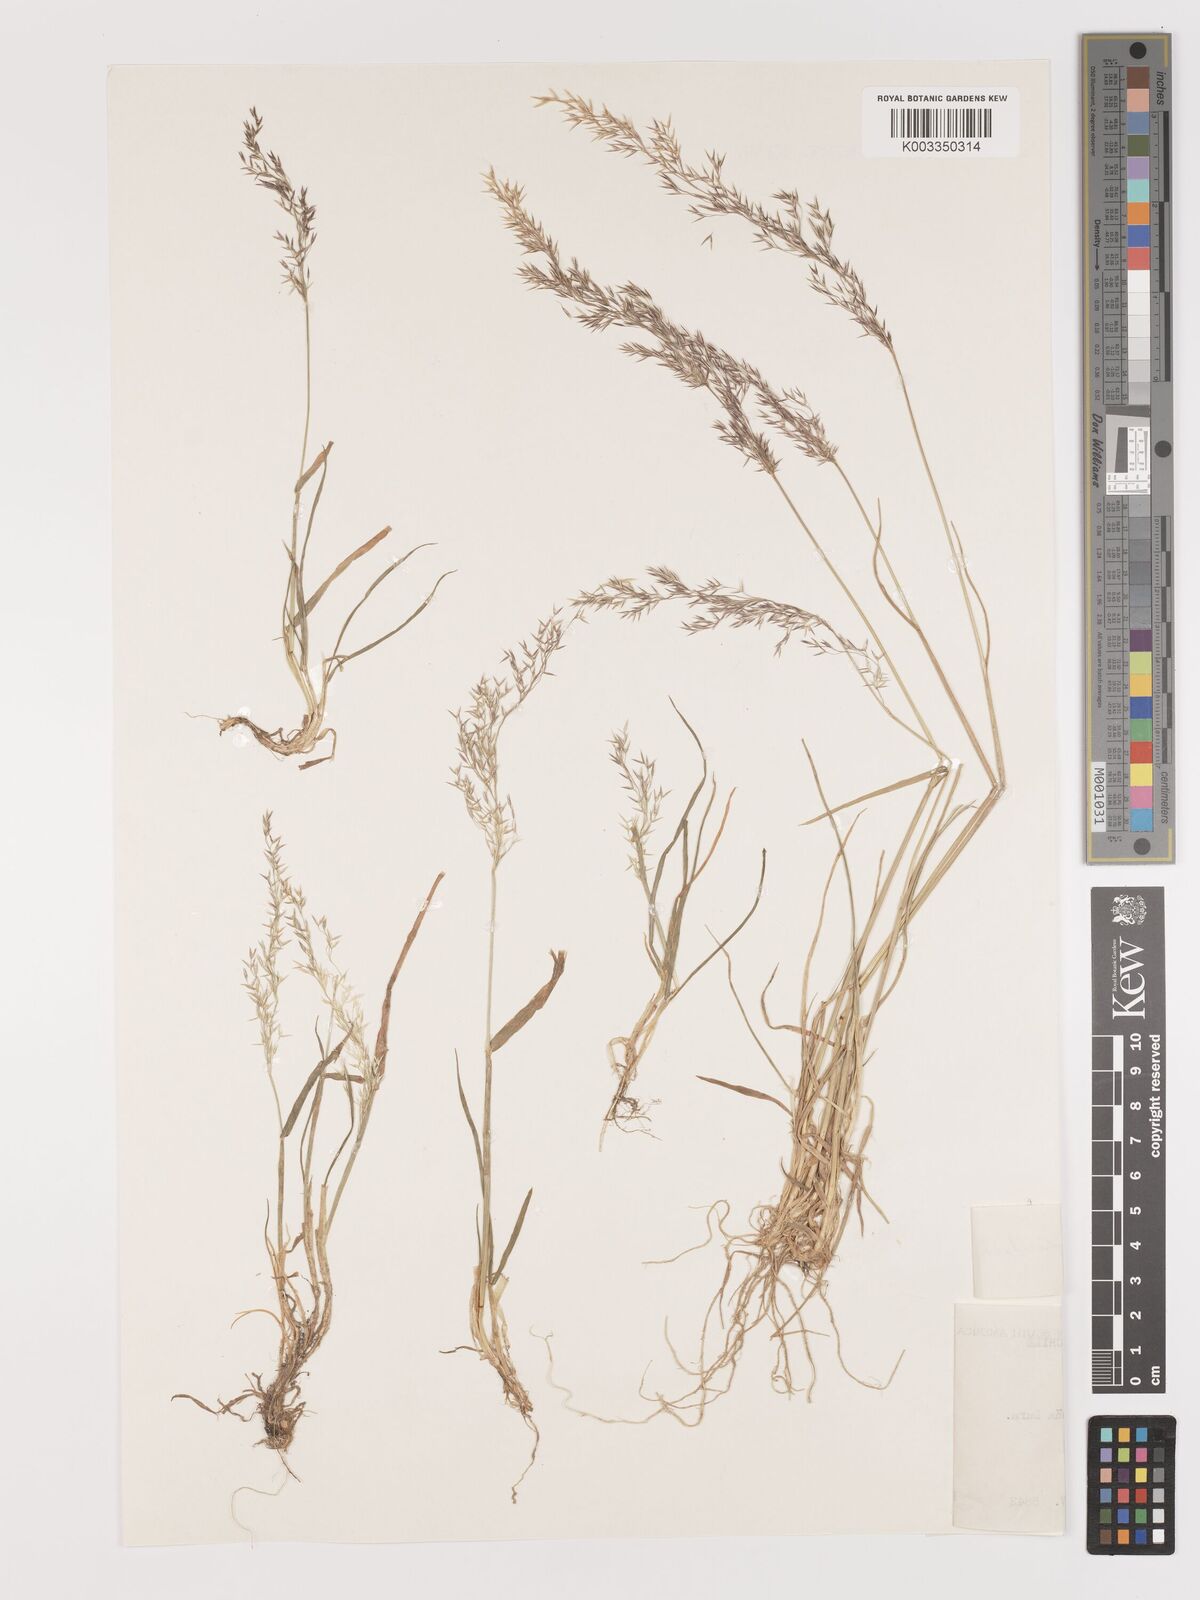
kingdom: Plantae
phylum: Tracheophyta
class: Liliopsida
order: Poales
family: Poaceae
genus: Agrostis
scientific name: Agrostis uliginosa
